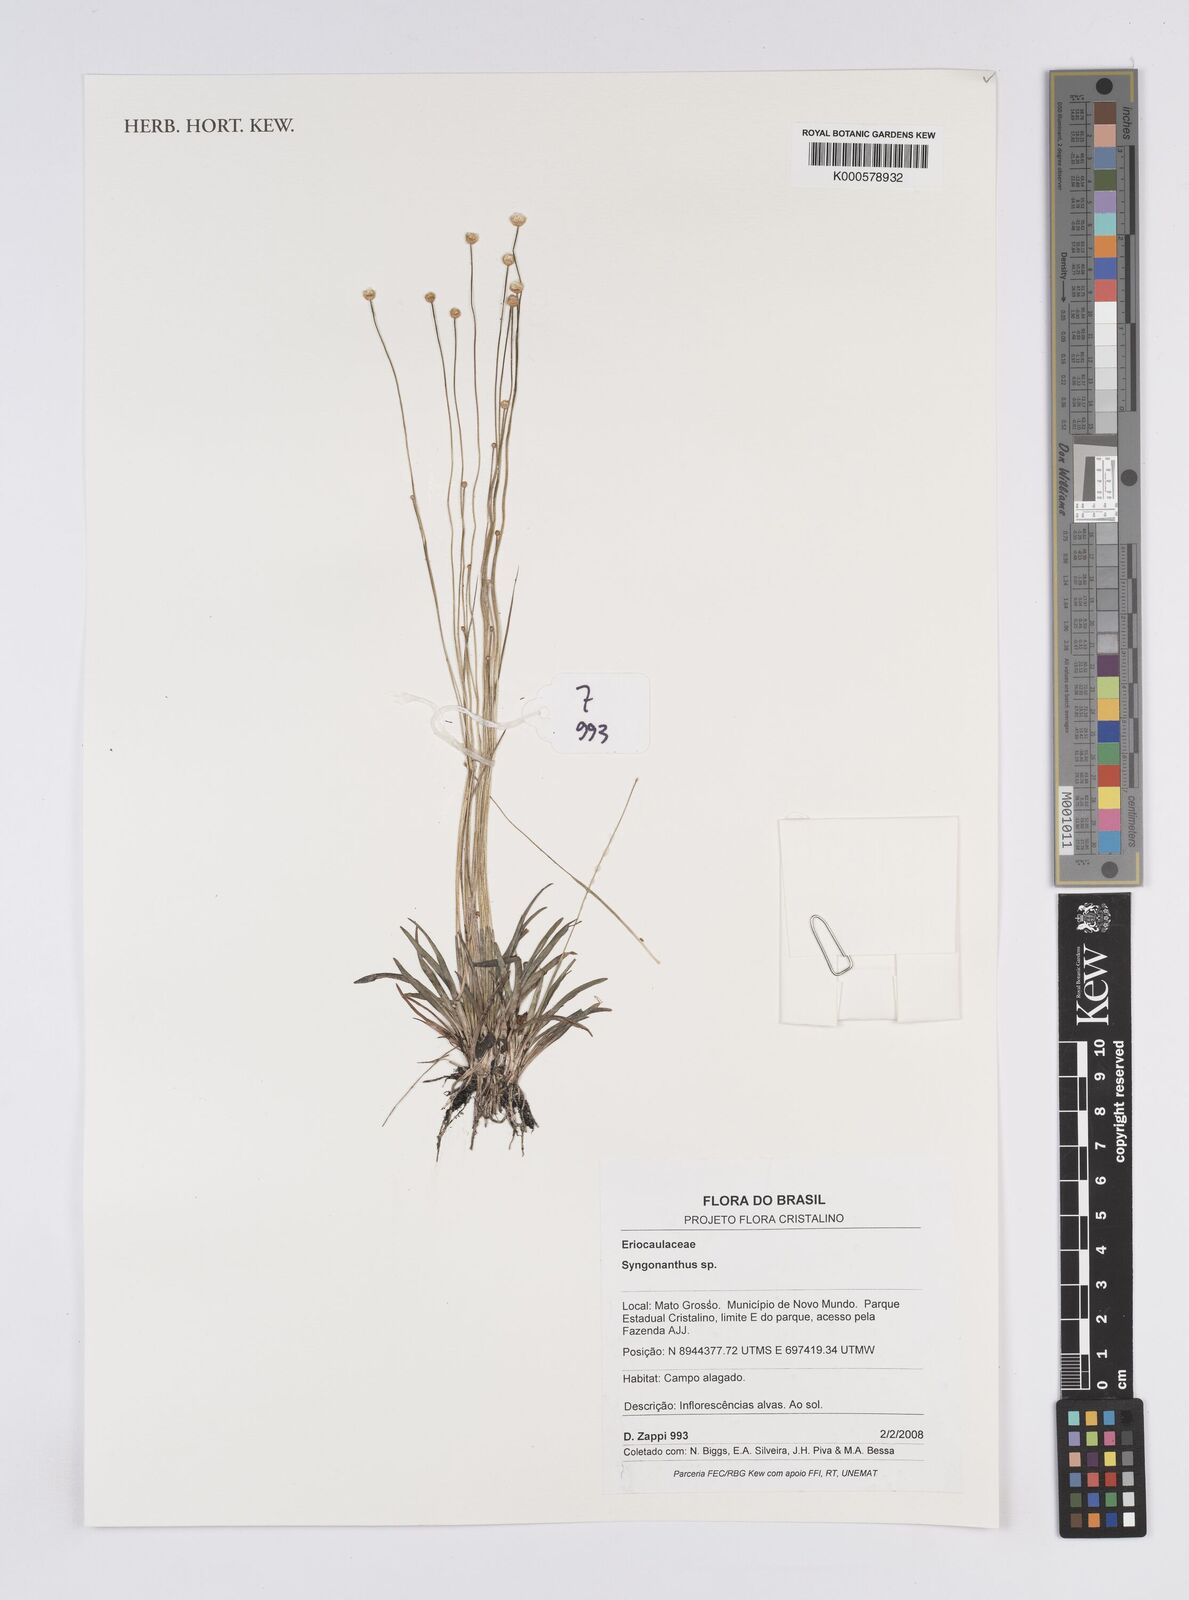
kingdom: Plantae
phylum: Tracheophyta
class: Liliopsida
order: Poales
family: Eriocaulaceae
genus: Syngonanthus
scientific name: Syngonanthus
